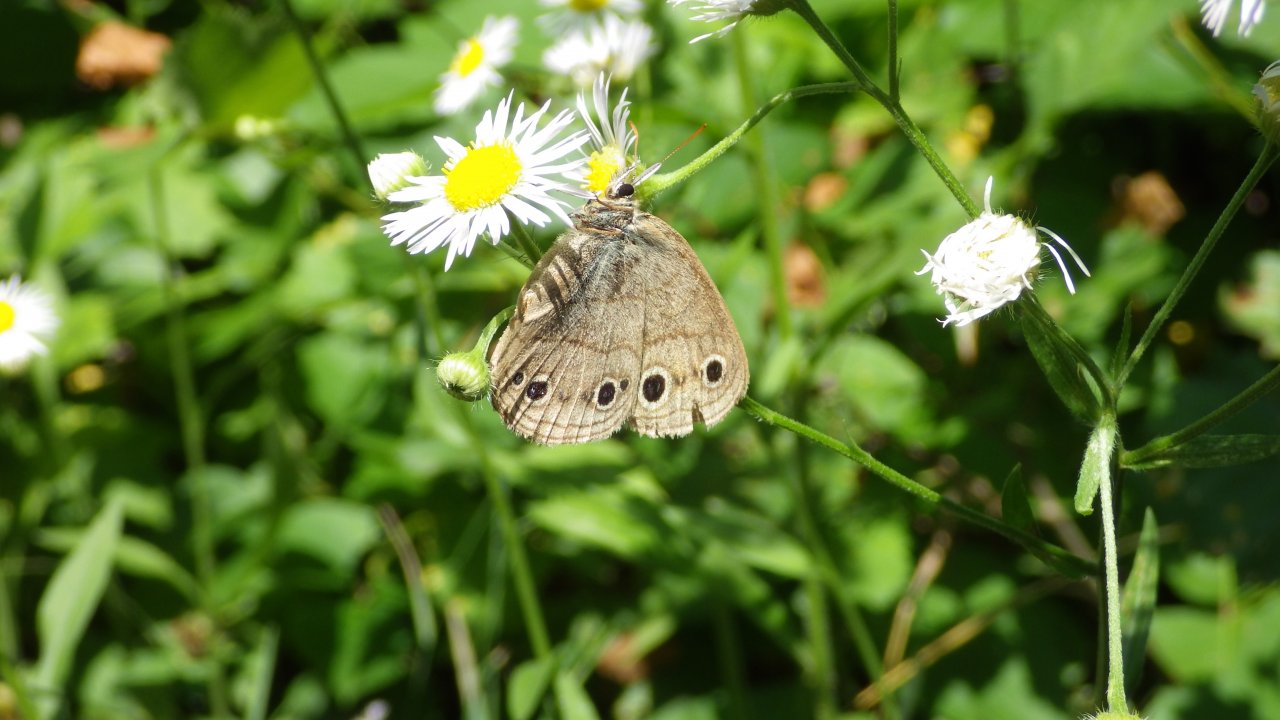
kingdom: Animalia
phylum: Arthropoda
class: Insecta
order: Lepidoptera
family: Nymphalidae
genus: Euptychia
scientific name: Euptychia cymela
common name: Little Wood Satyr
